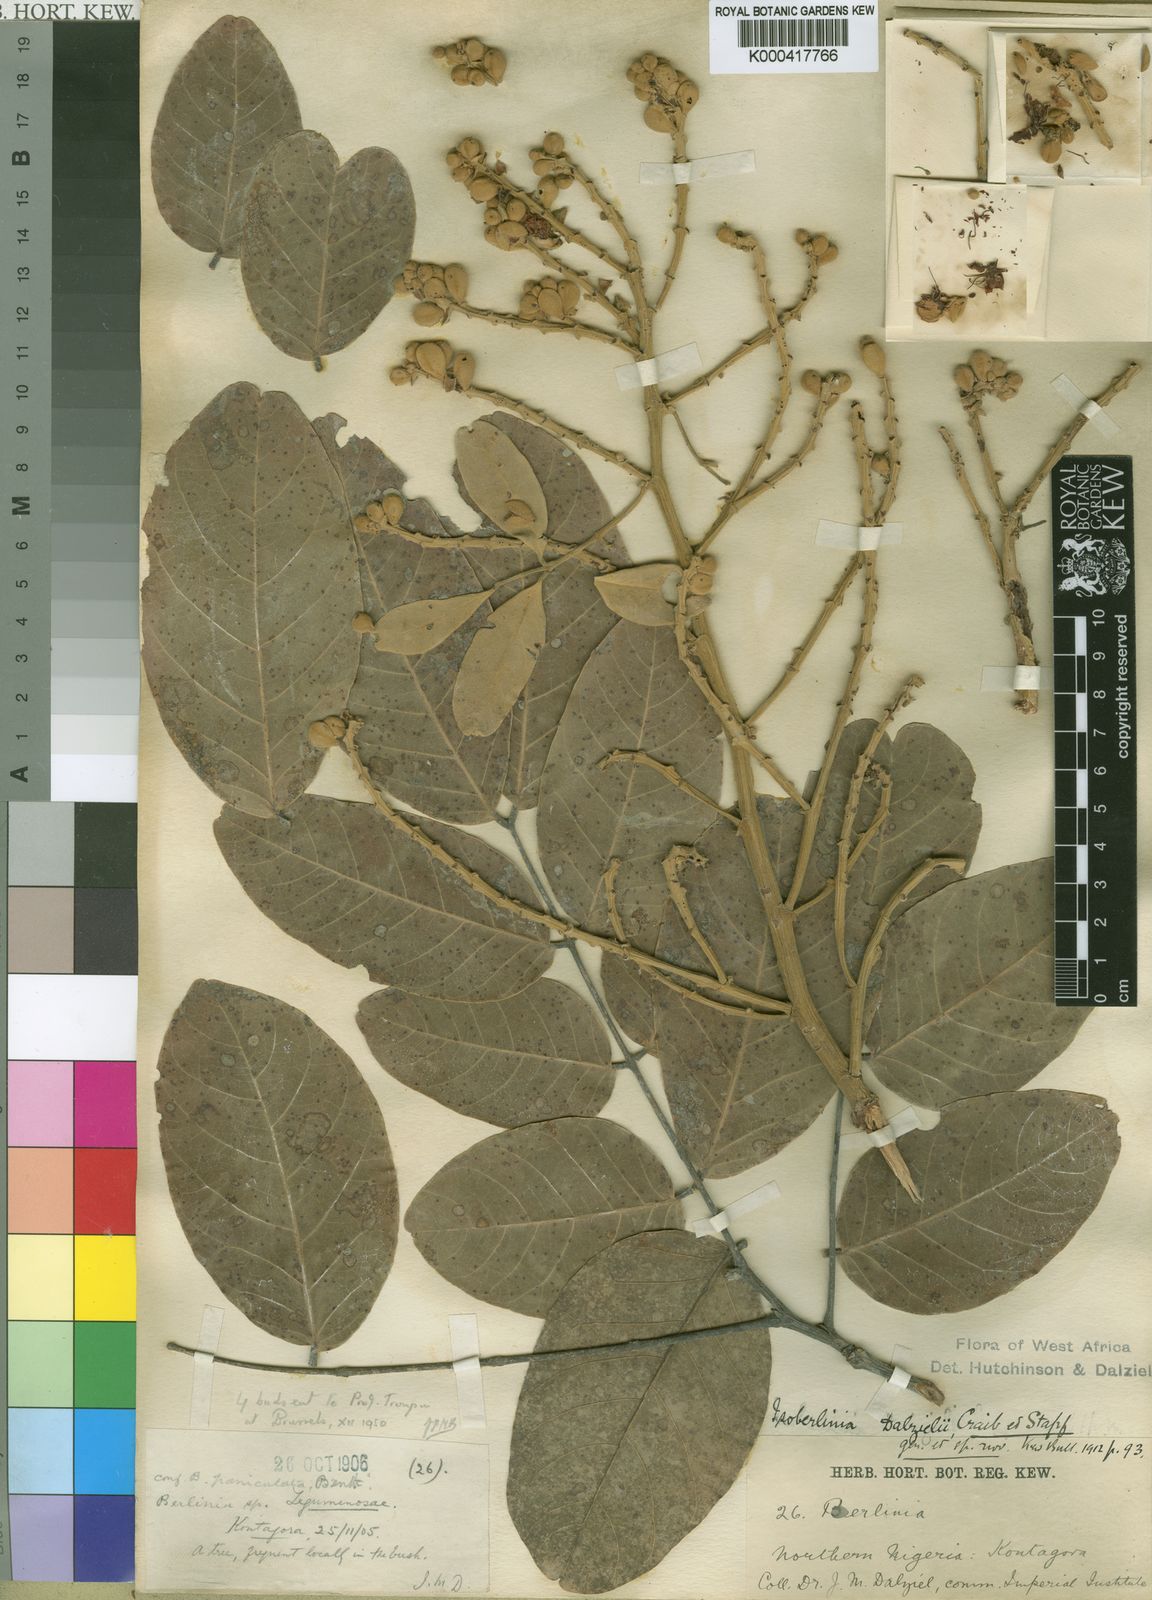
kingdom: Plantae
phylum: Tracheophyta
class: Magnoliopsida
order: Fabales
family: Fabaceae
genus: Isoberlinia
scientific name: Isoberlinia tomentosa
